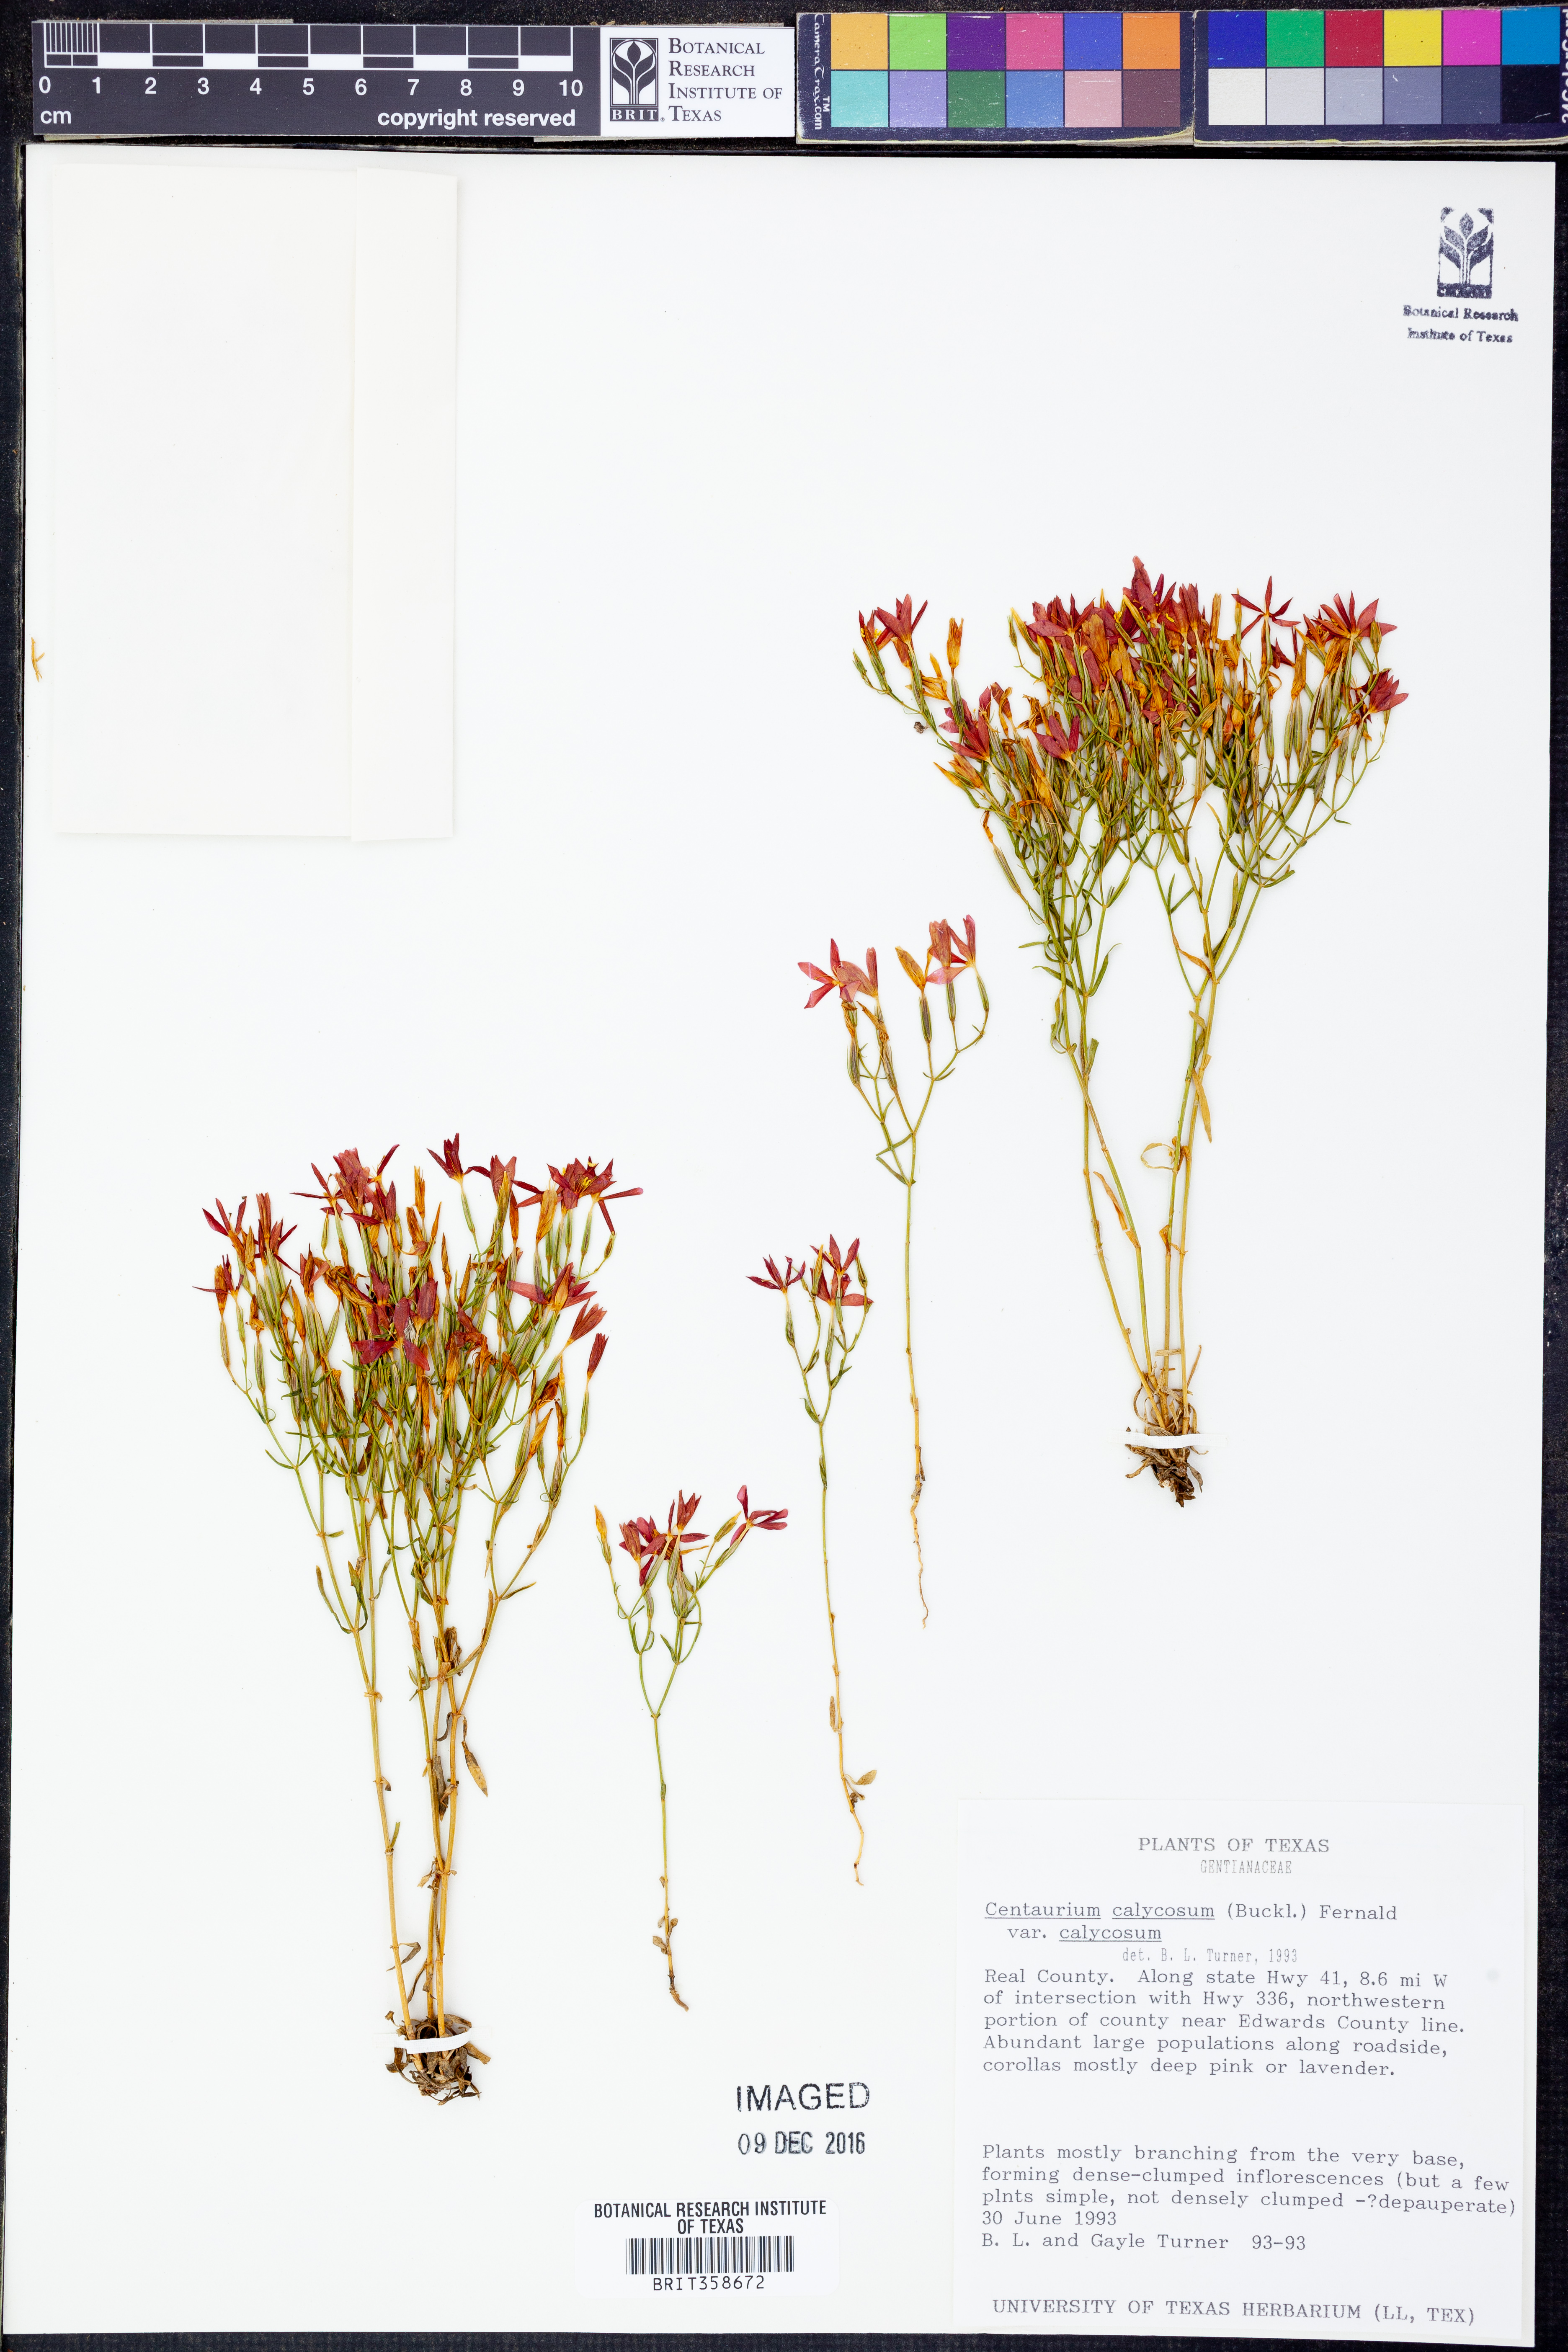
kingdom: Plantae
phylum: Tracheophyta
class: Magnoliopsida
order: Gentianales
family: Gentianaceae
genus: Zeltnera
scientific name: Zeltnera calycosa
